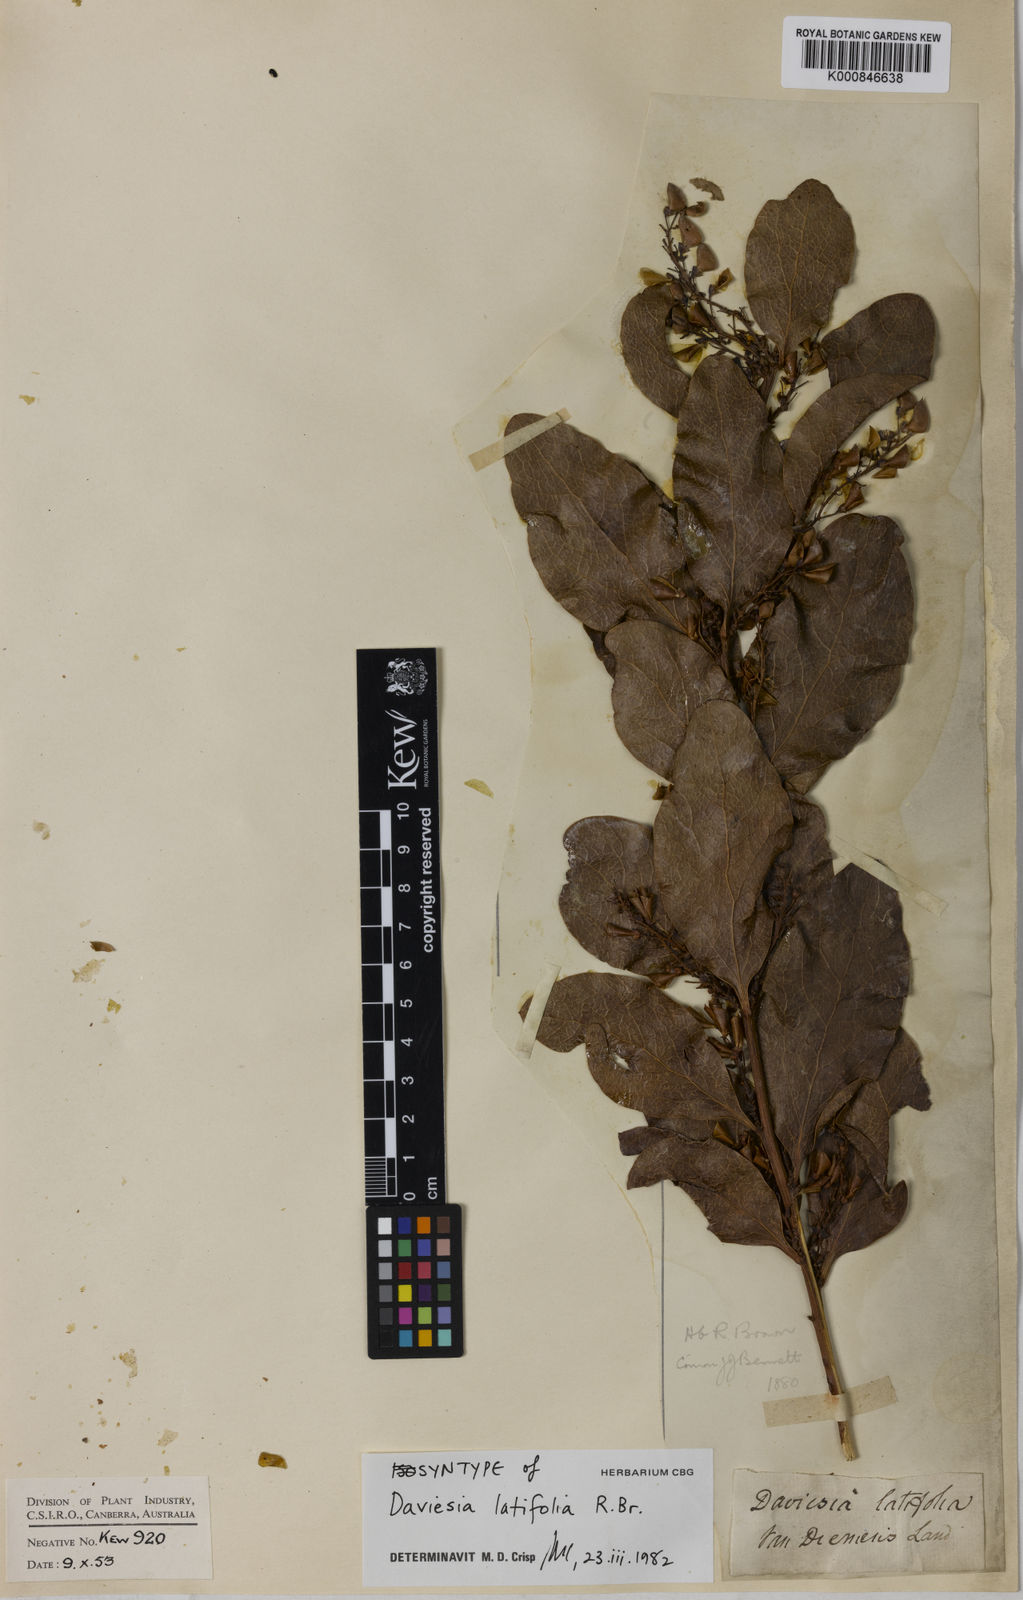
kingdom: Plantae
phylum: Tracheophyta
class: Magnoliopsida
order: Fabales
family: Fabaceae
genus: Daviesia
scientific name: Daviesia latifolia
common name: Hop bitter-pea
